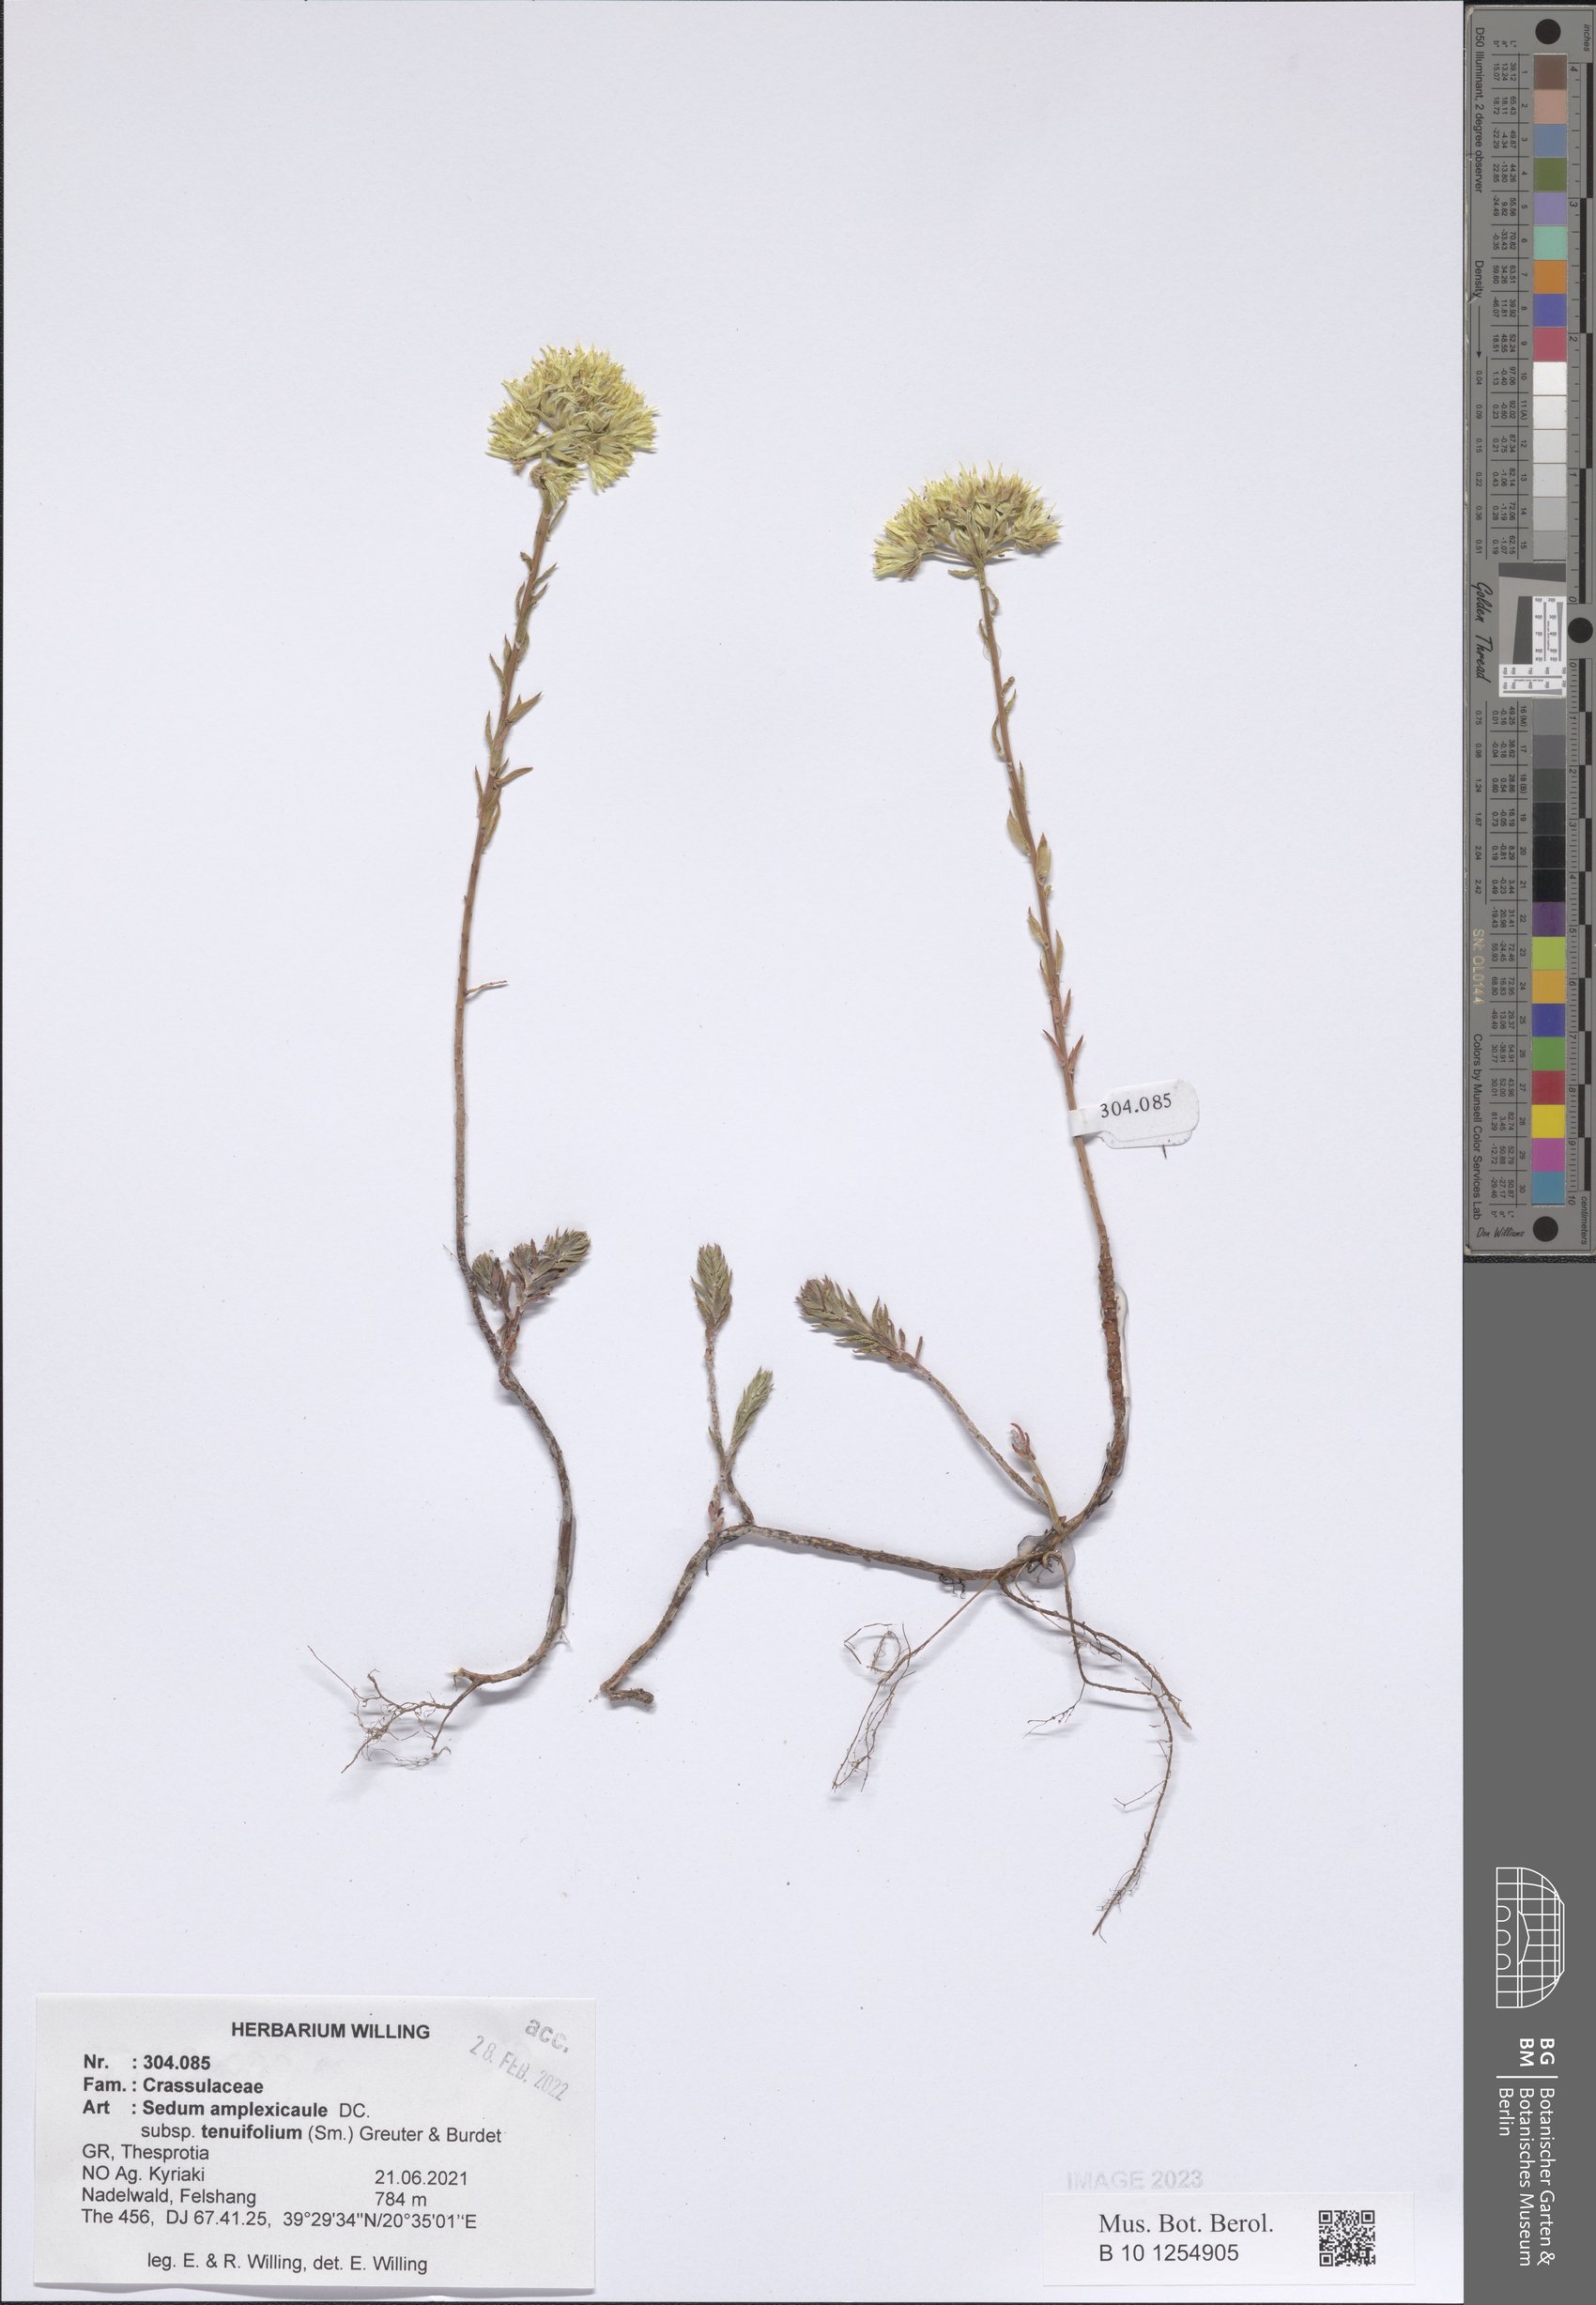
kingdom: Plantae
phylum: Tracheophyta
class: Magnoliopsida
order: Saxifragales
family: Crassulaceae
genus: Petrosedum
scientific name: Petrosedum tenuifolium
